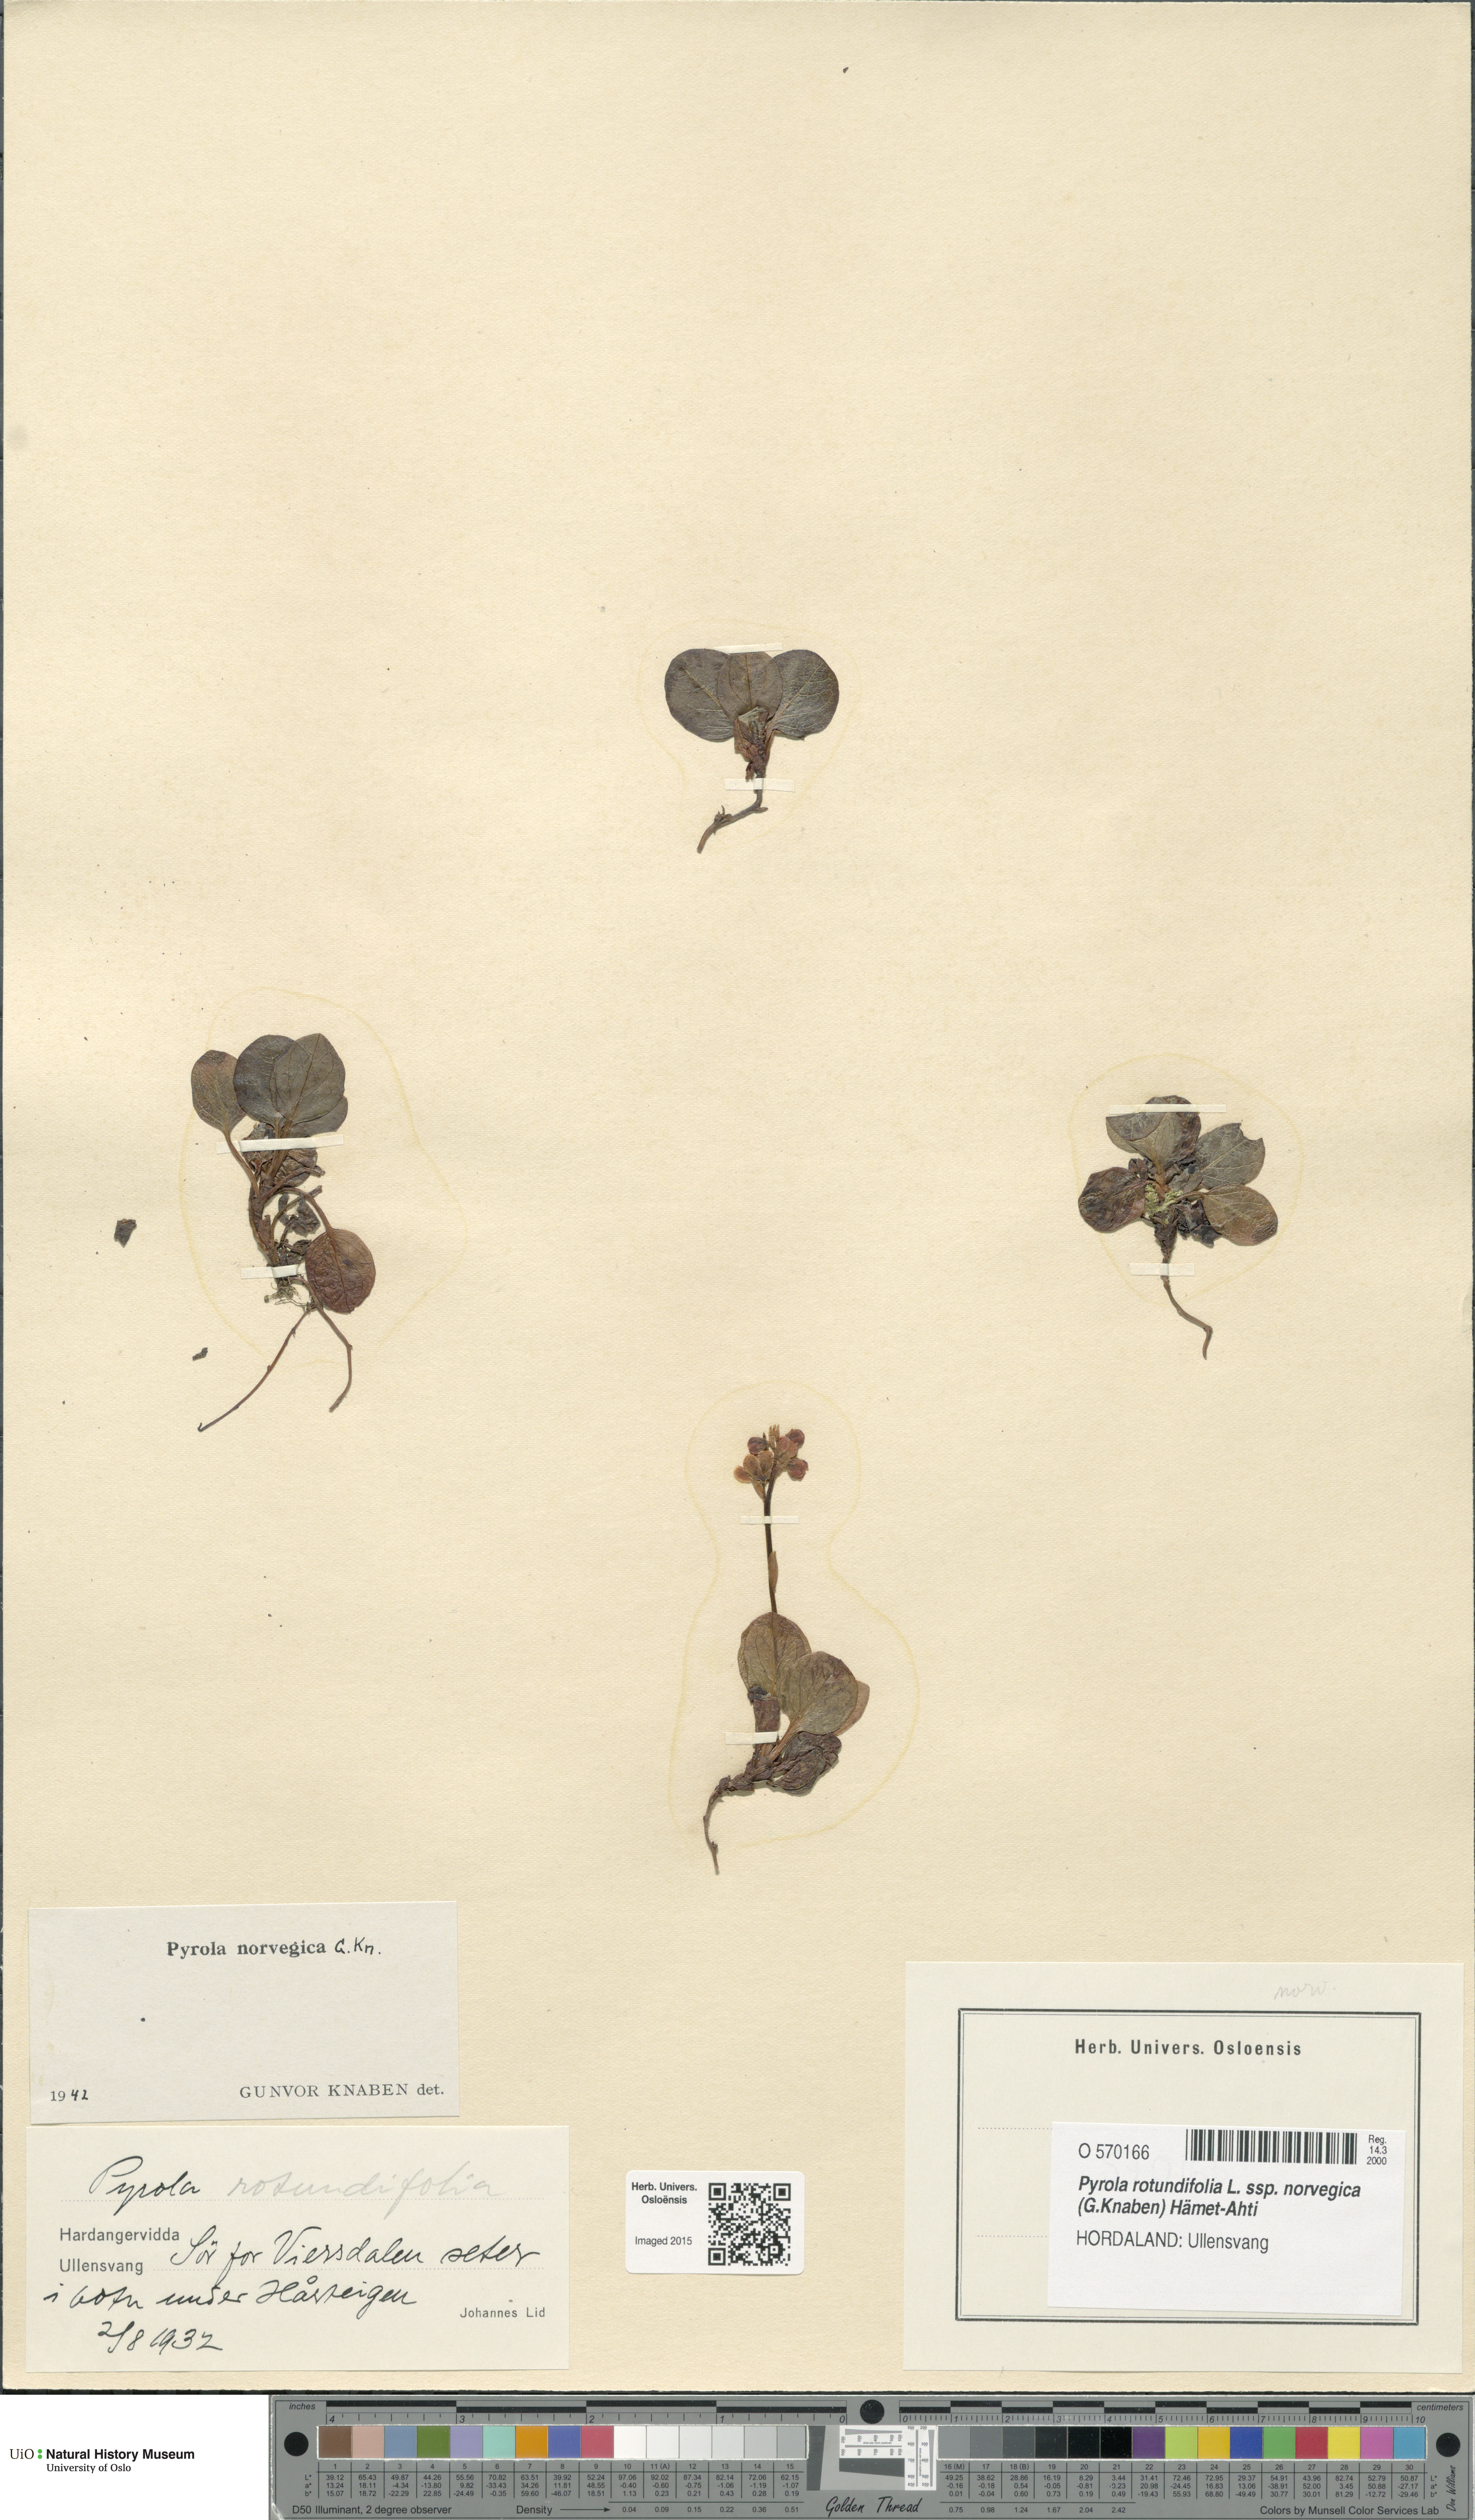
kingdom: Plantae
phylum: Tracheophyta
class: Magnoliopsida
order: Ericales
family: Ericaceae
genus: Pyrola
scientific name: Pyrola rotundifolia
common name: Round-leaved wintergreen
